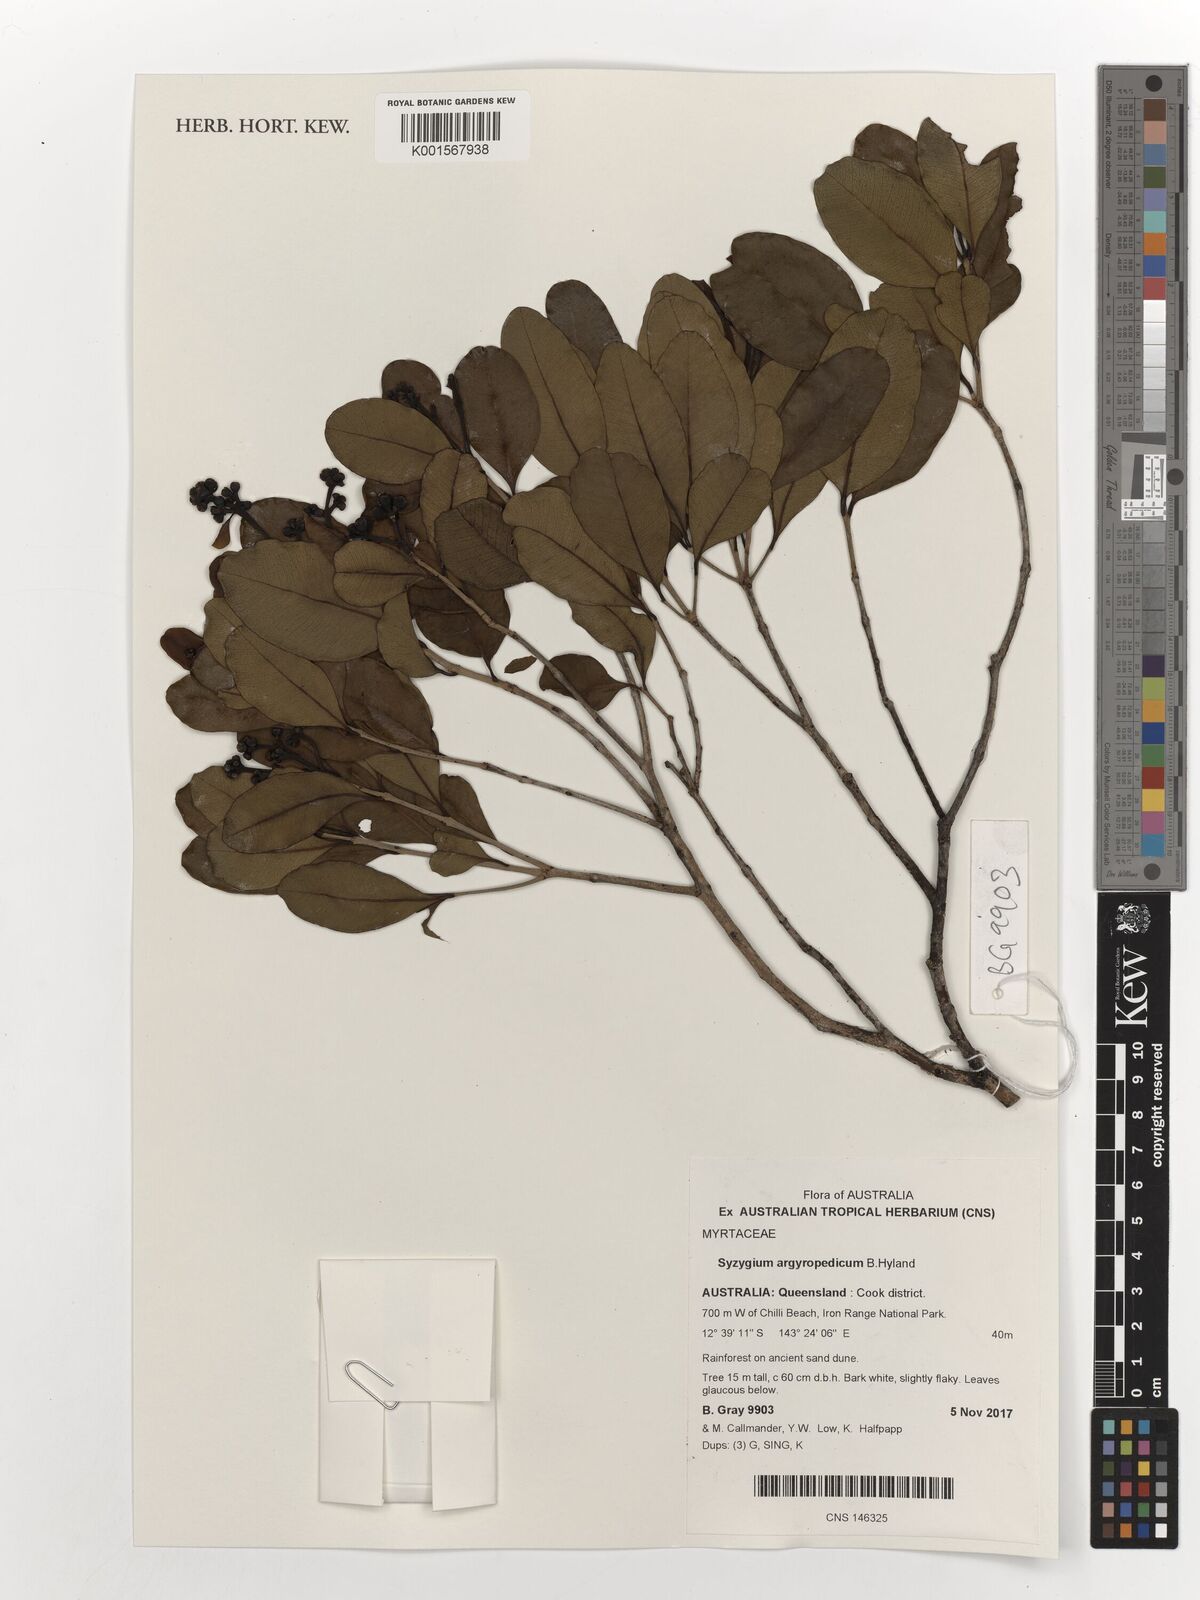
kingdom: Plantae
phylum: Tracheophyta
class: Magnoliopsida
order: Myrtales
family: Myrtaceae
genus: Syzygium
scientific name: Syzygium argyropedicum
